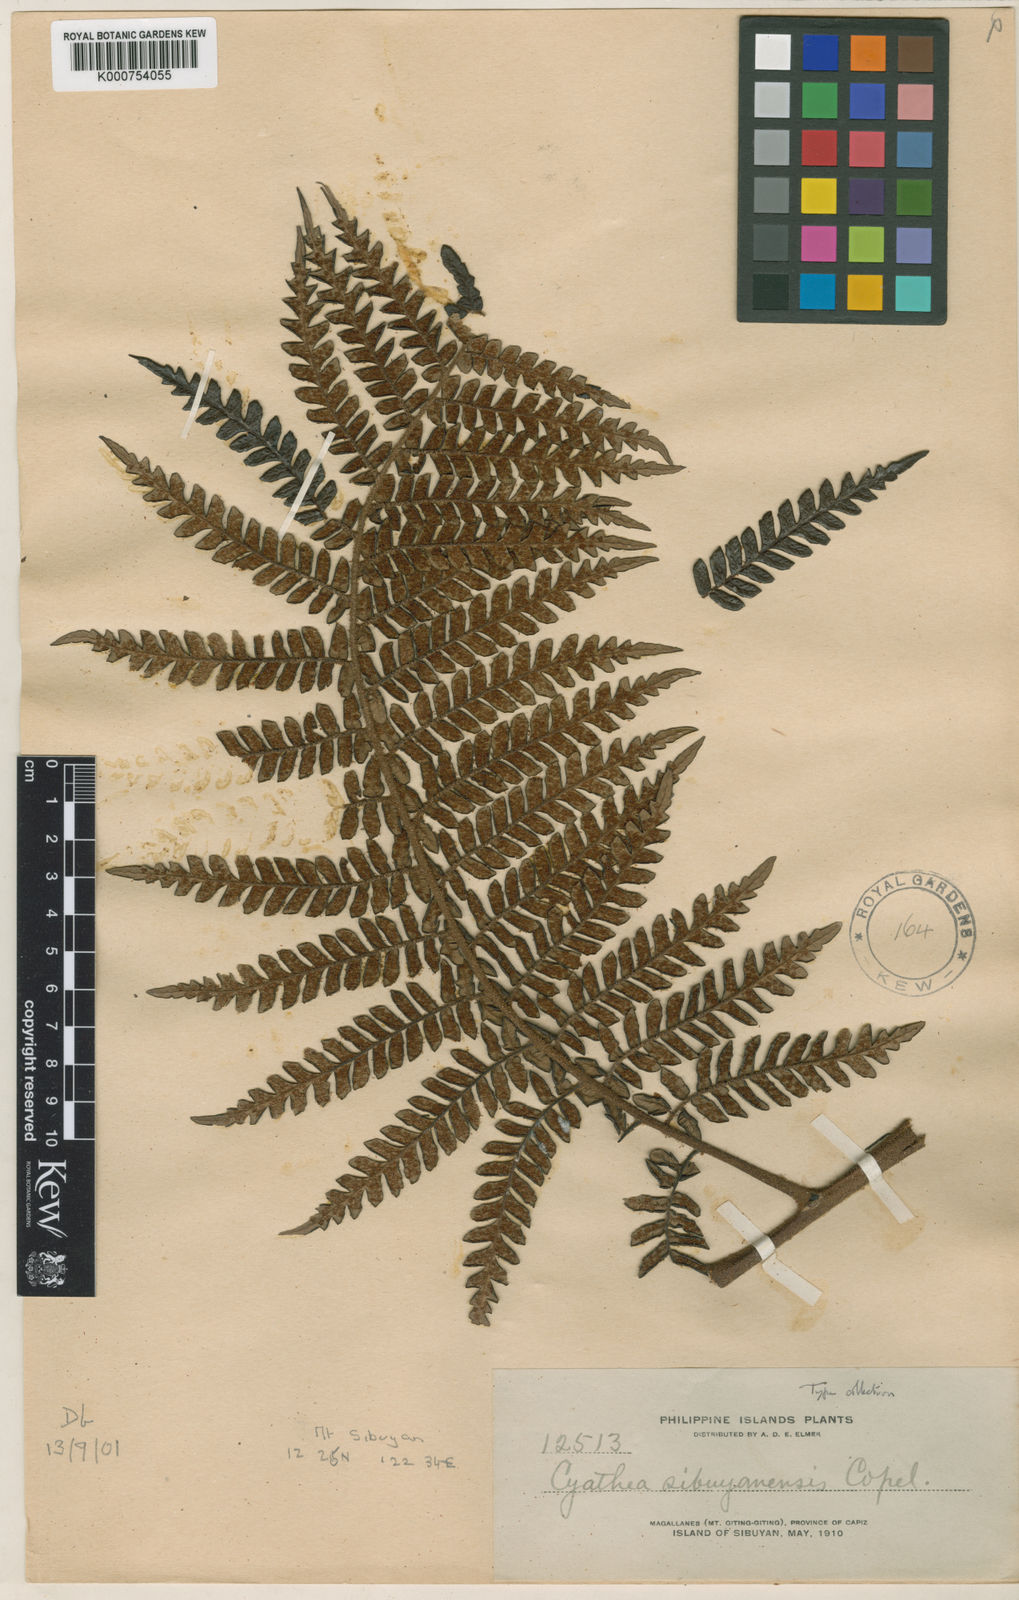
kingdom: Plantae
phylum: Tracheophyta
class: Polypodiopsida
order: Cyatheales
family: Cyatheaceae
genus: Sphaeropteris
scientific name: Sphaeropteris sibuyanensis
